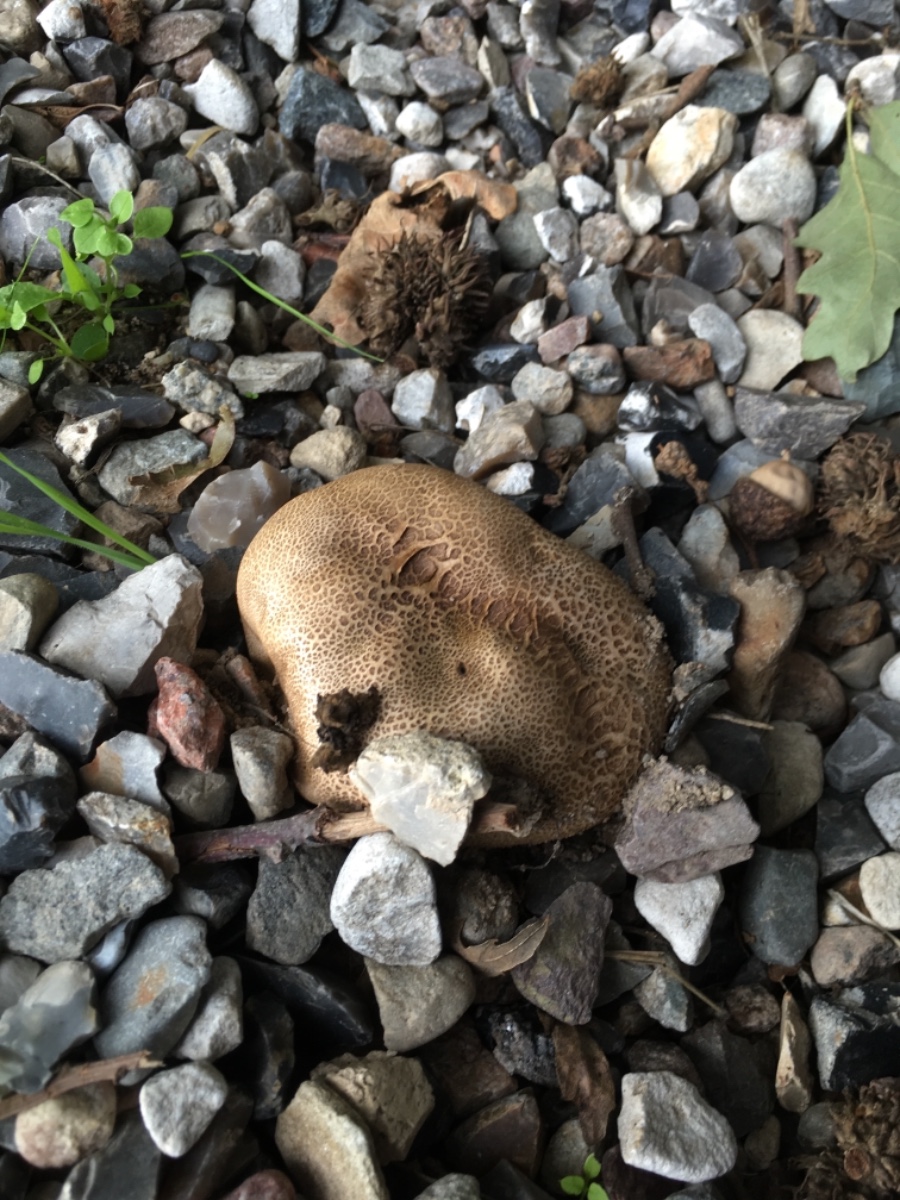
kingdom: Fungi
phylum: Basidiomycota
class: Agaricomycetes
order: Boletales
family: Sclerodermataceae
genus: Scleroderma
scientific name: Scleroderma bovista
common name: bovist-bruskbold
